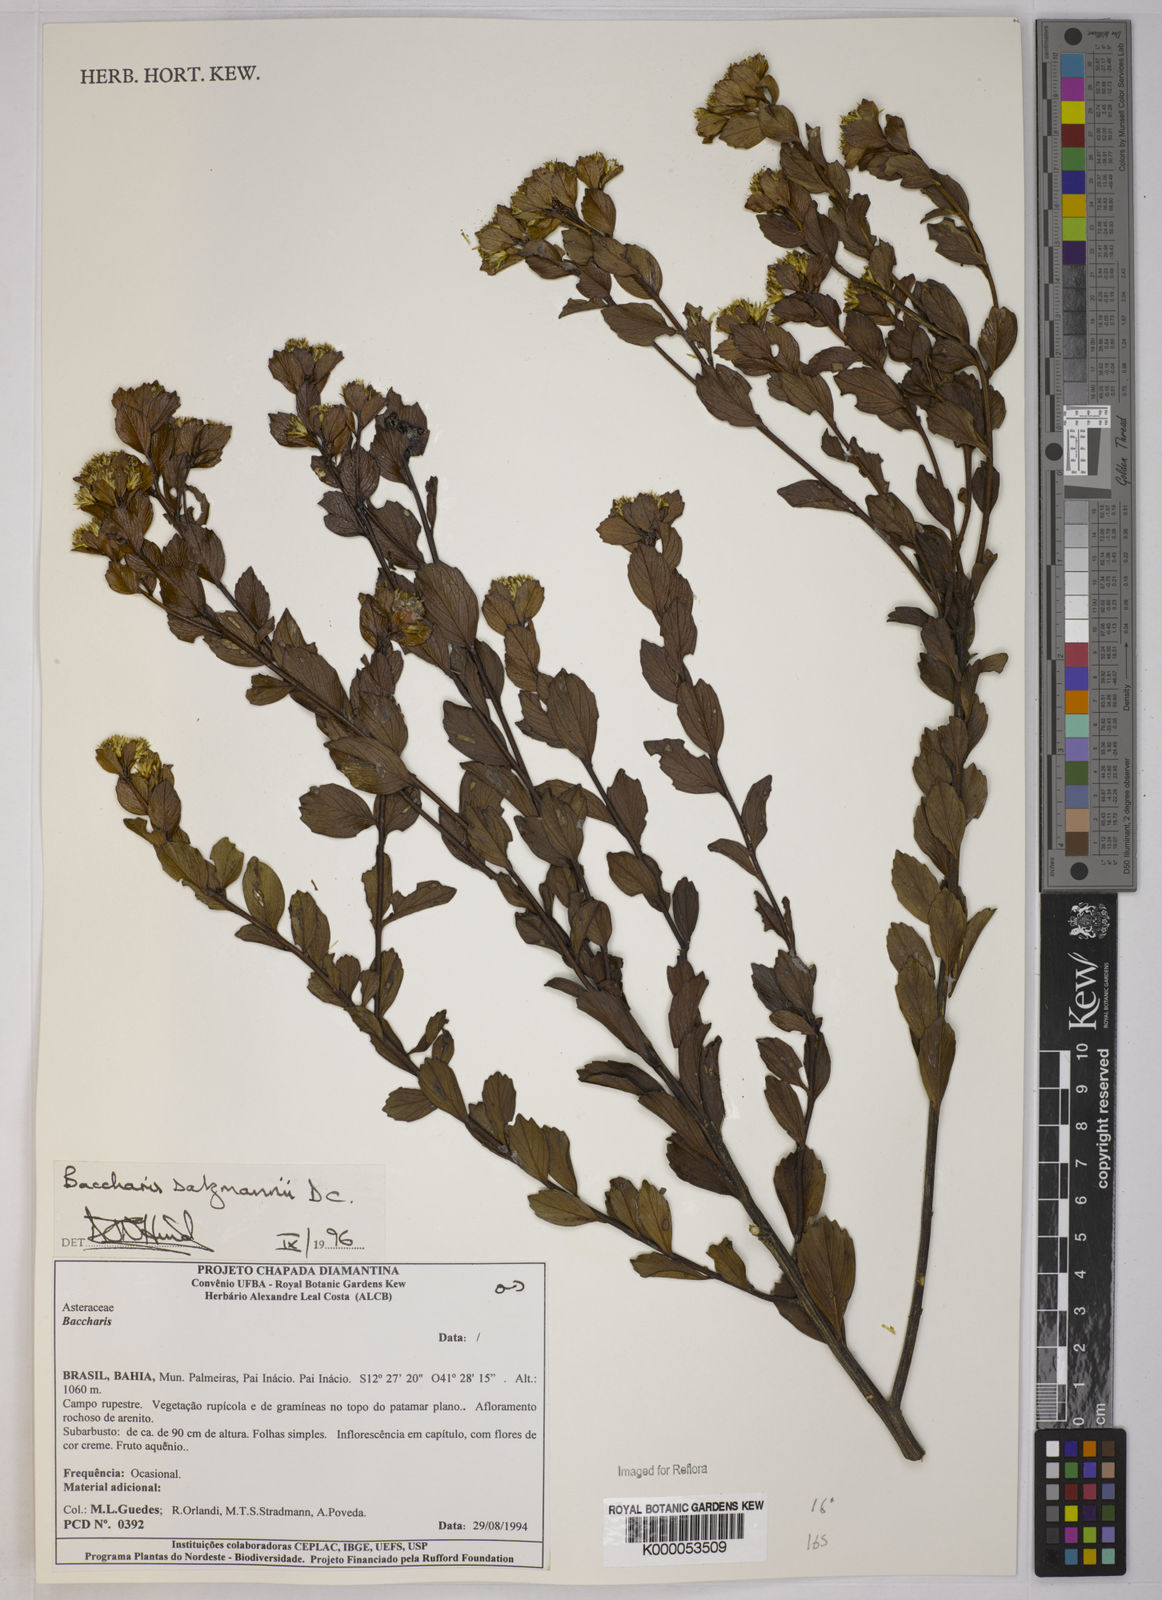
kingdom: Plantae
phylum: Tracheophyta
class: Magnoliopsida
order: Asterales
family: Asteraceae
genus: Baccharis
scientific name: Baccharis retusa
